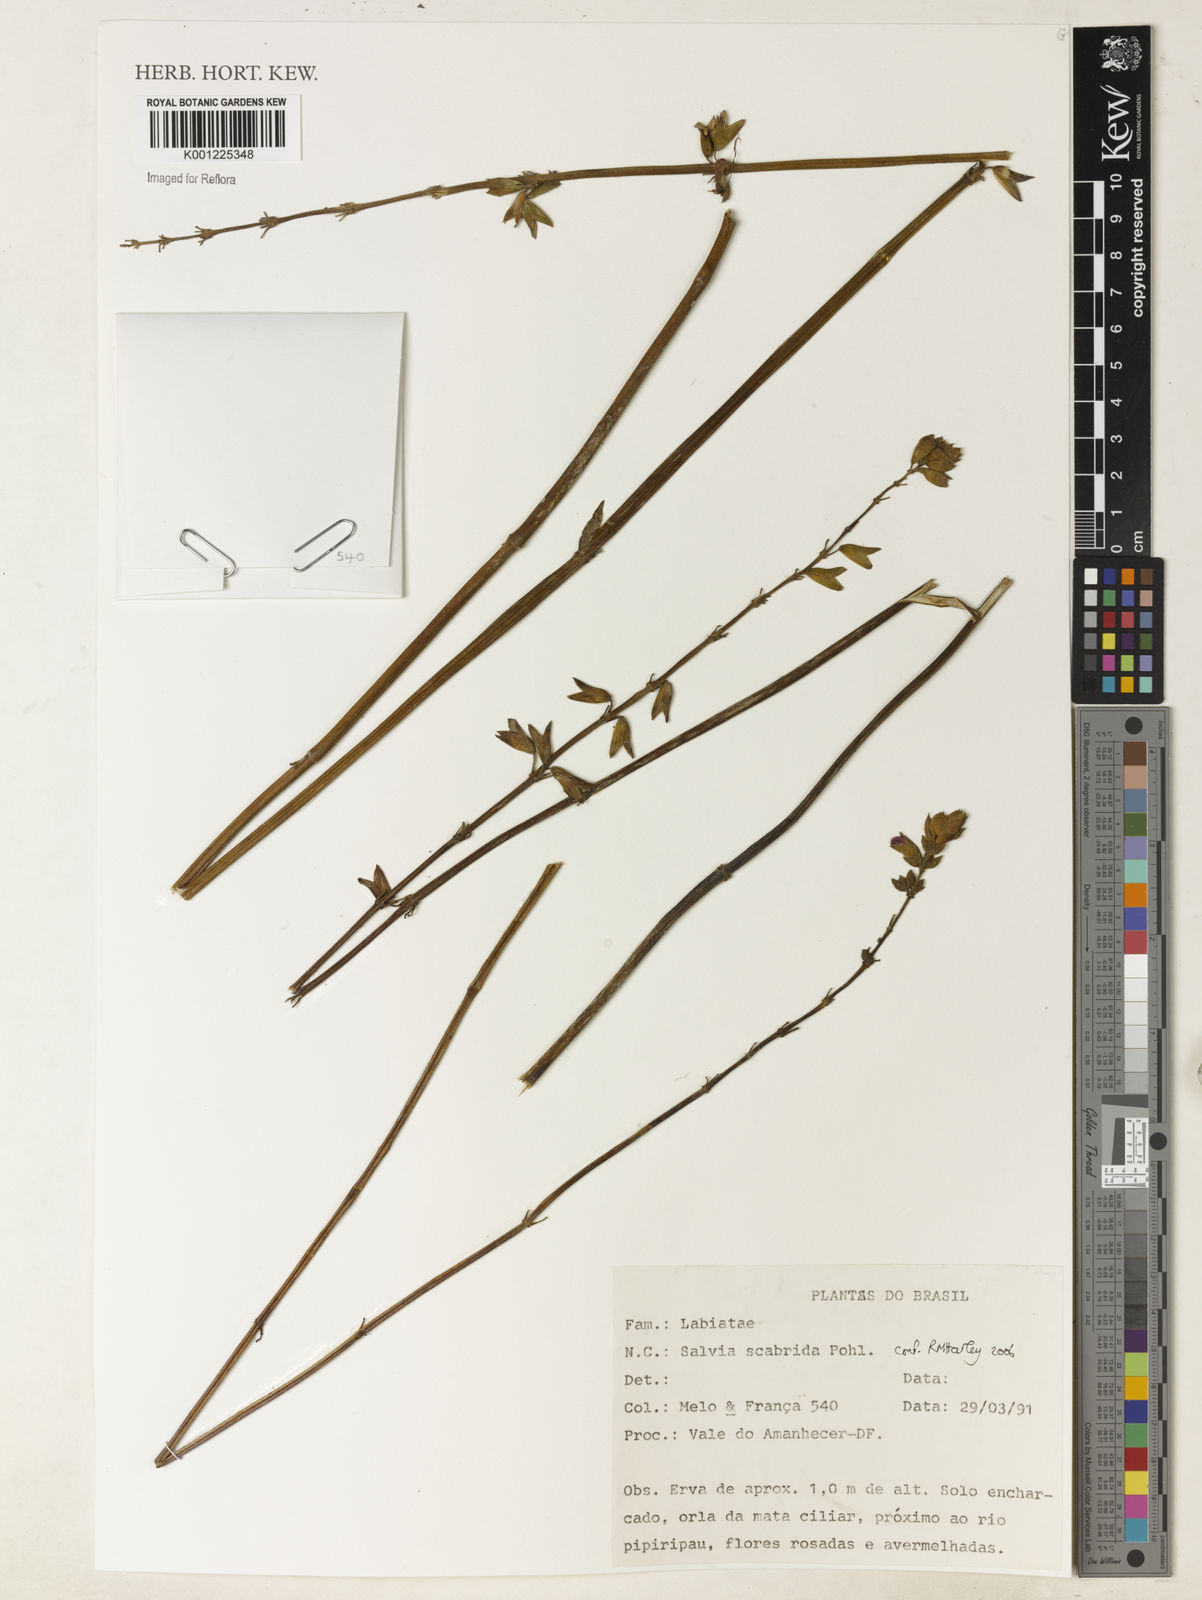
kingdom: Plantae
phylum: Tracheophyta
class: Magnoliopsida
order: Lamiales
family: Lamiaceae
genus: Salvia
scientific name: Salvia scabrida
